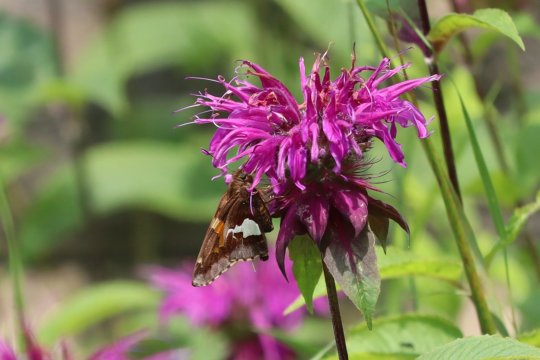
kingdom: Animalia
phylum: Arthropoda
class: Insecta
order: Lepidoptera
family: Hesperiidae
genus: Epargyreus
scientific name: Epargyreus clarus
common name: Silver-spotted Skipper
